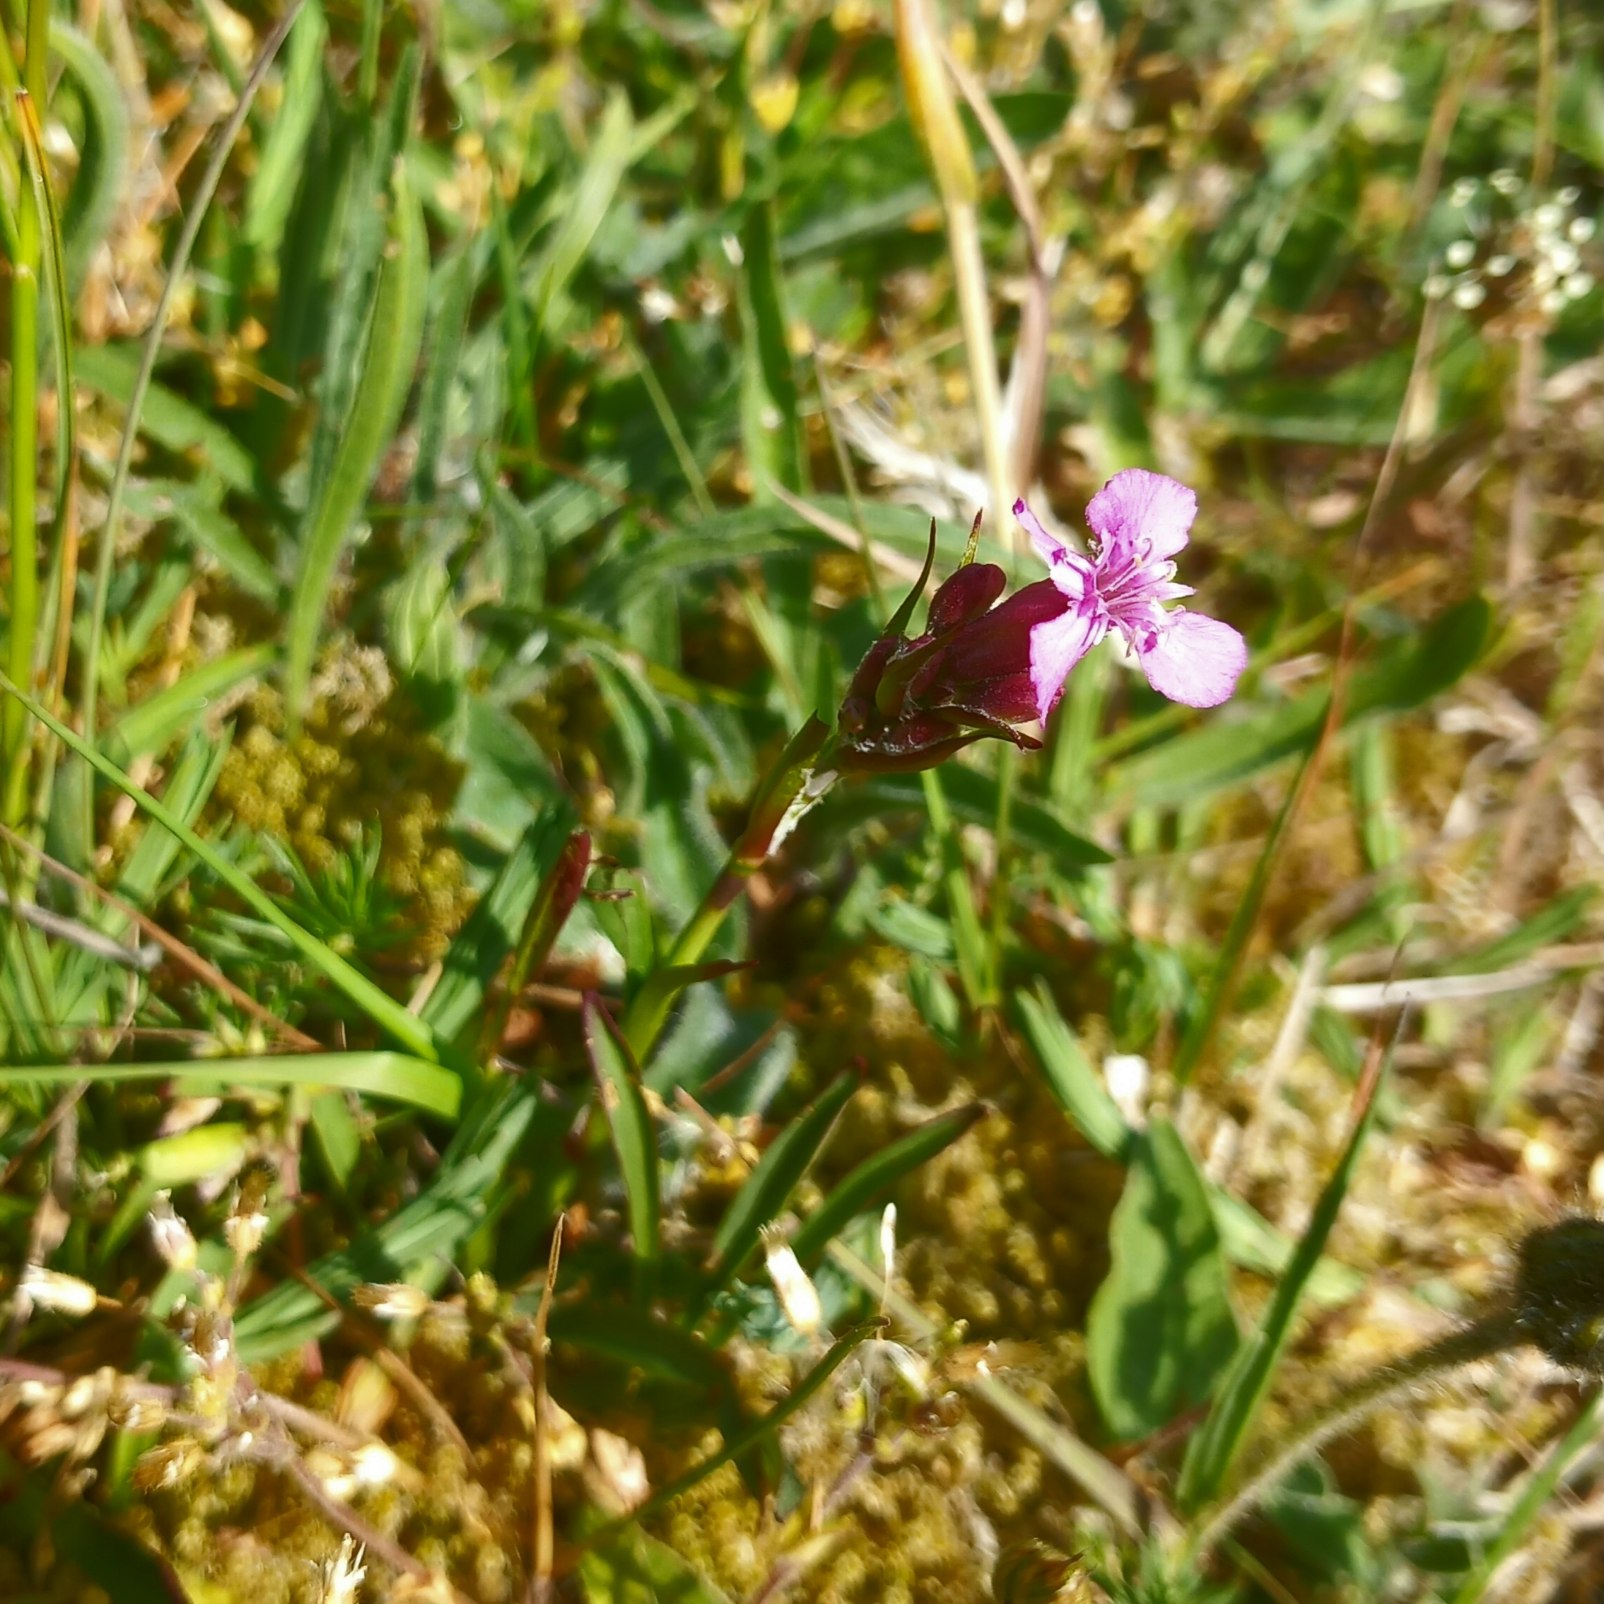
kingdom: Plantae
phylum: Tracheophyta
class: Magnoliopsida
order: Caryophyllales
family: Caryophyllaceae
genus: Dianthus
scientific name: Dianthus deltoides
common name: Bakke-nellike
